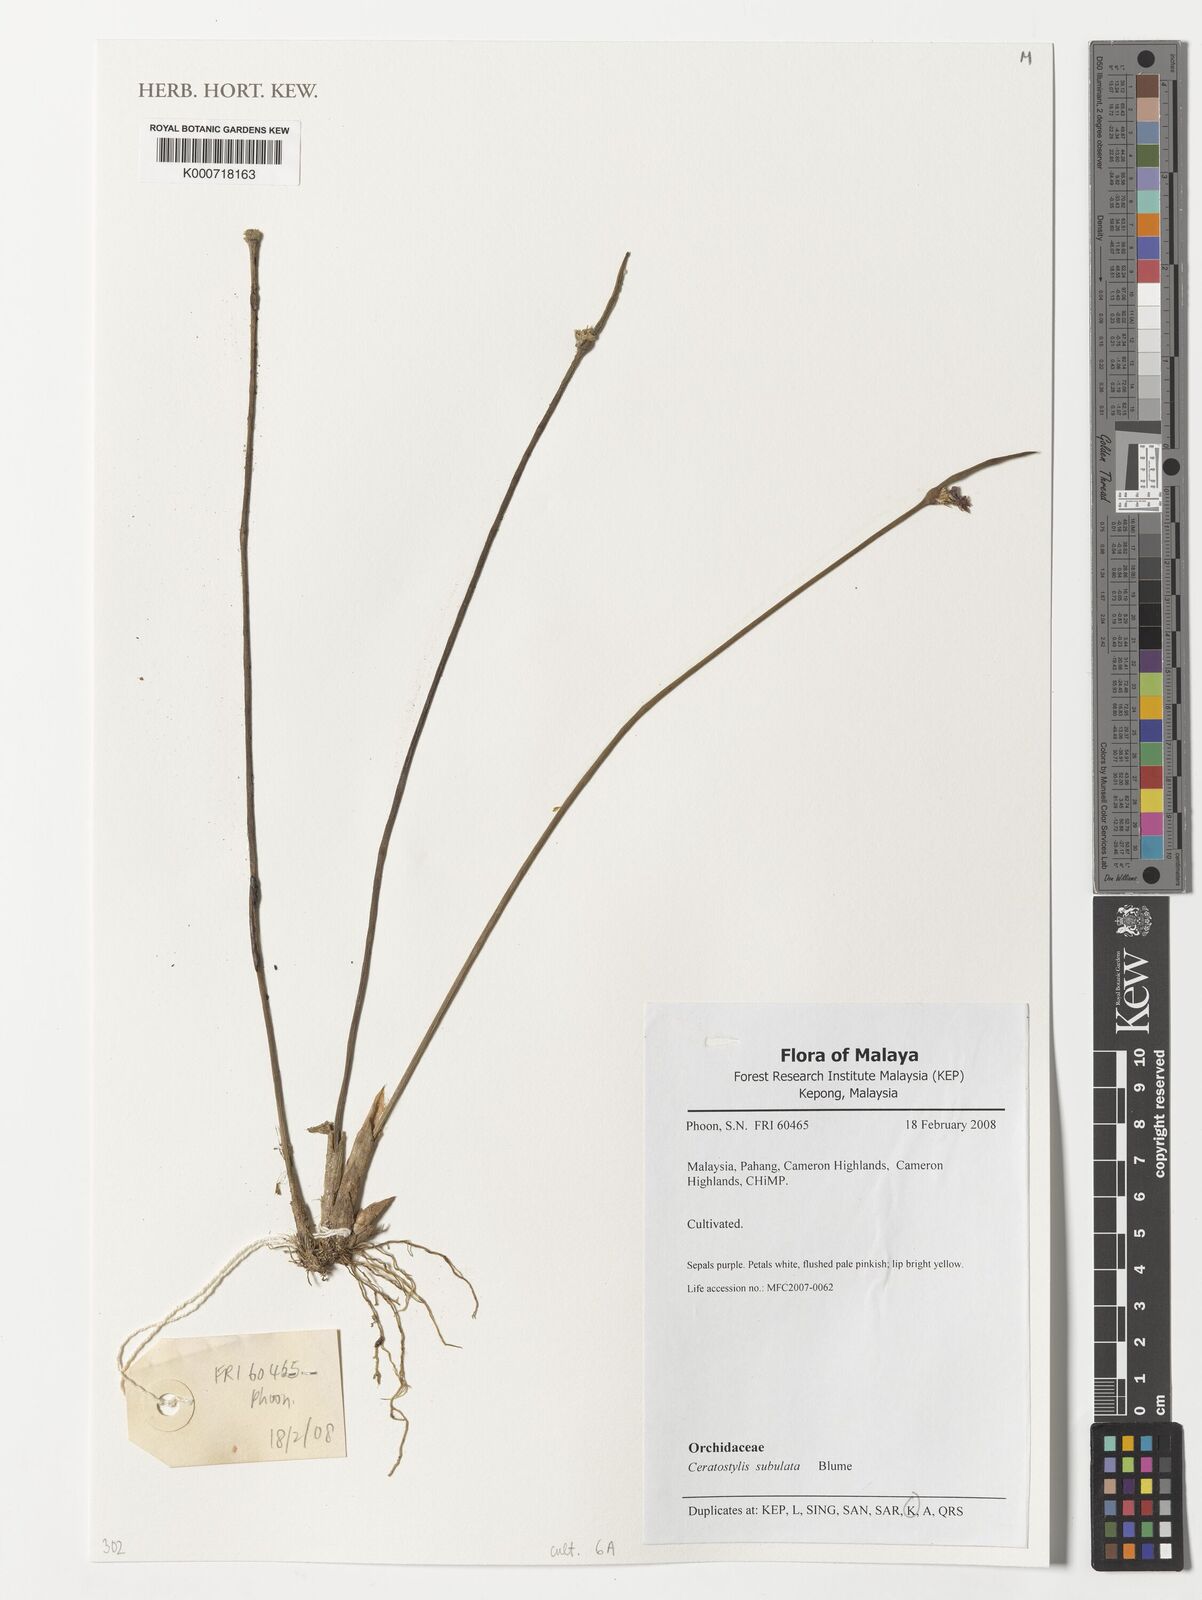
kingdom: Plantae
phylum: Tracheophyta
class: Liliopsida
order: Asparagales
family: Orchidaceae
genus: Ceratostylis
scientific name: Ceratostylis subulata
